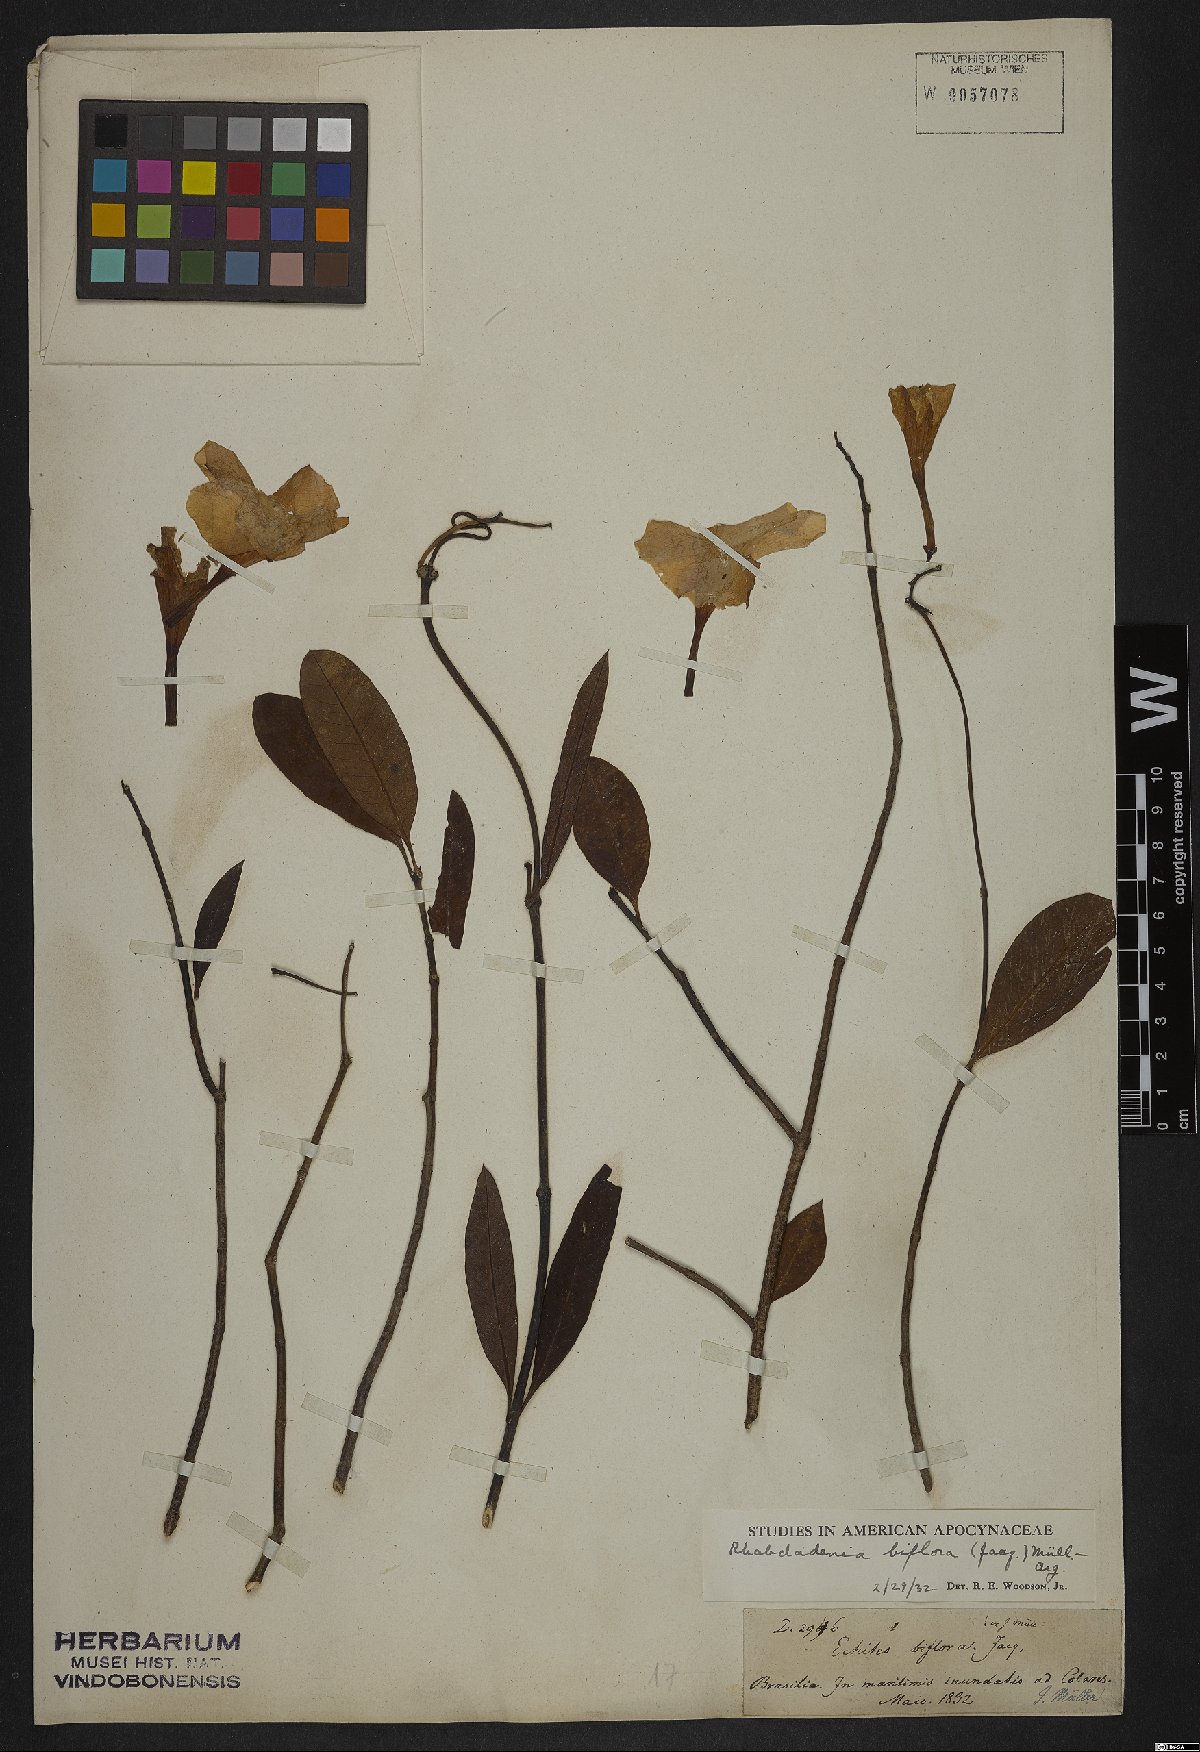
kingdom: Plantae
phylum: Tracheophyta
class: Magnoliopsida
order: Gentianales
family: Apocynaceae
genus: Rhabdadenia
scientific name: Rhabdadenia biflora
